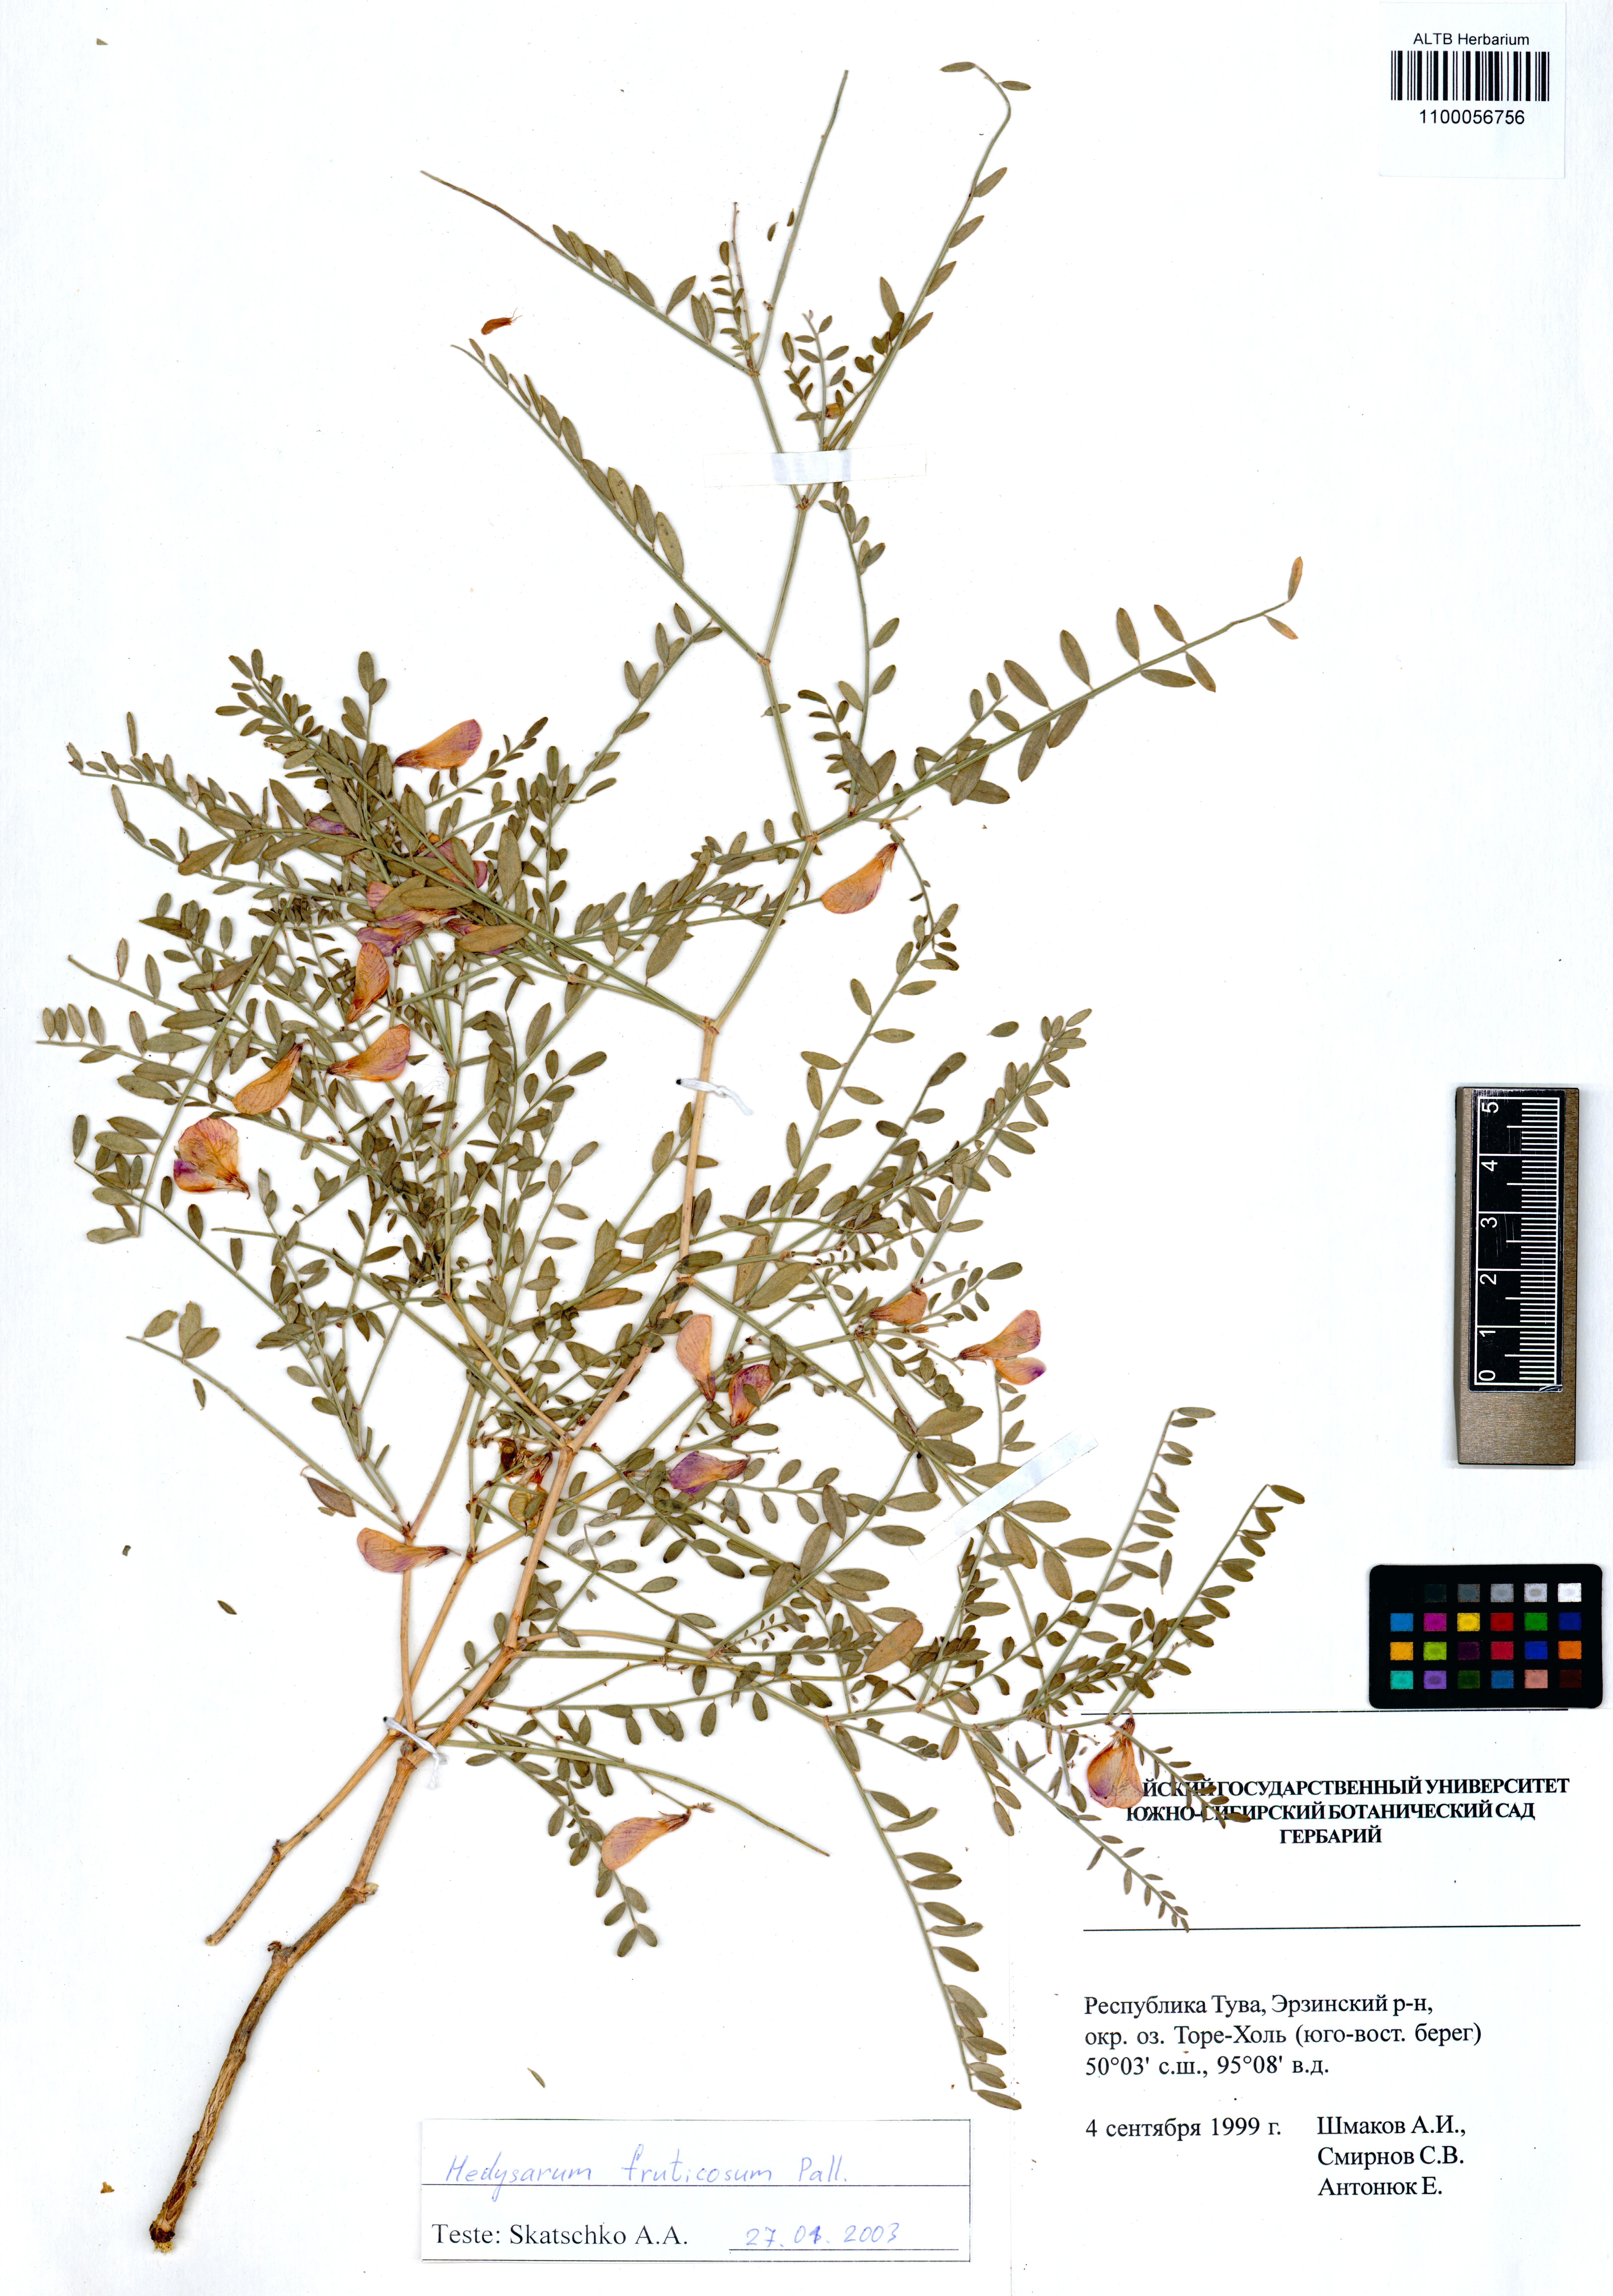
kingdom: Plantae
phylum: Tracheophyta
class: Magnoliopsida
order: Fabales
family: Fabaceae
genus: Corethrodendron
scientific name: Corethrodendron fruticosum
